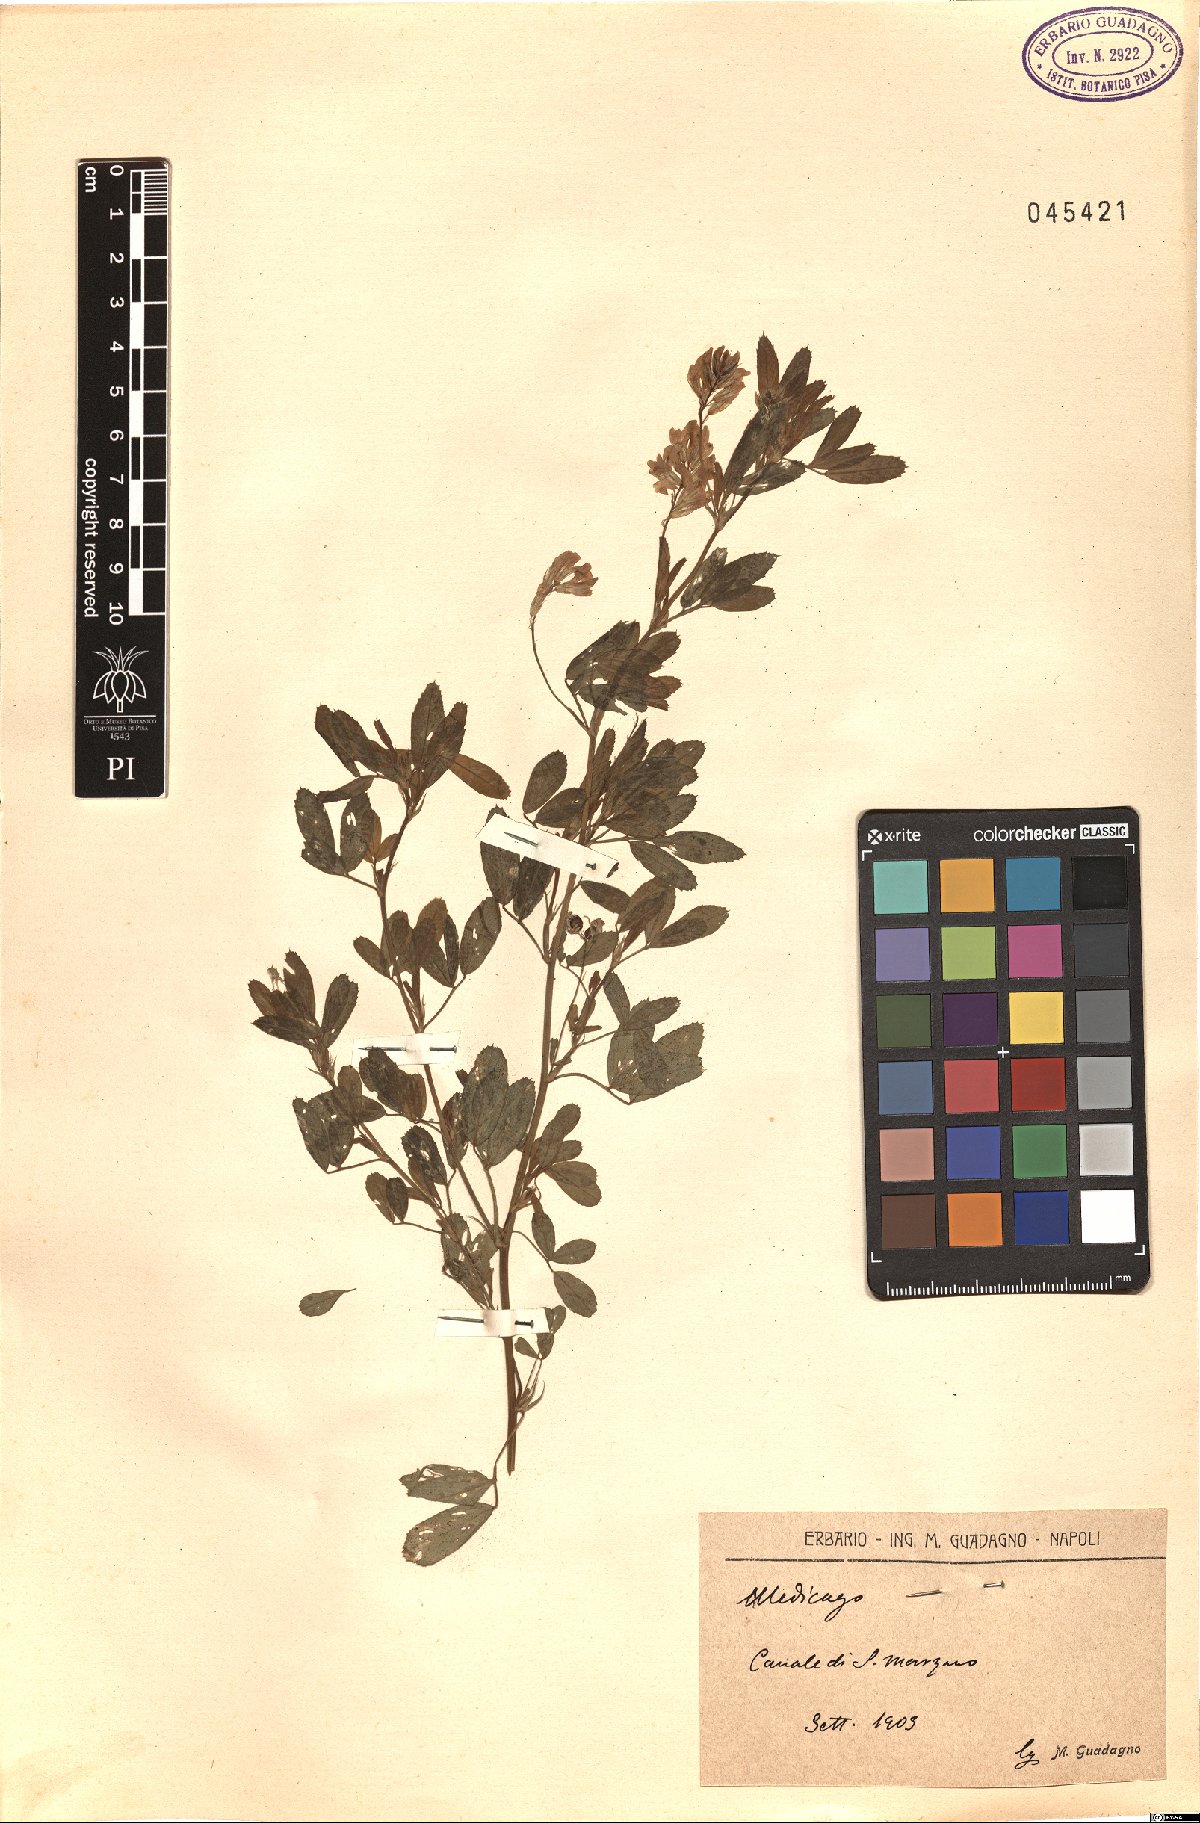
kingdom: Plantae
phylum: Tracheophyta
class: Magnoliopsida
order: Fabales
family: Fabaceae
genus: Medicago
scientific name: Medicago
